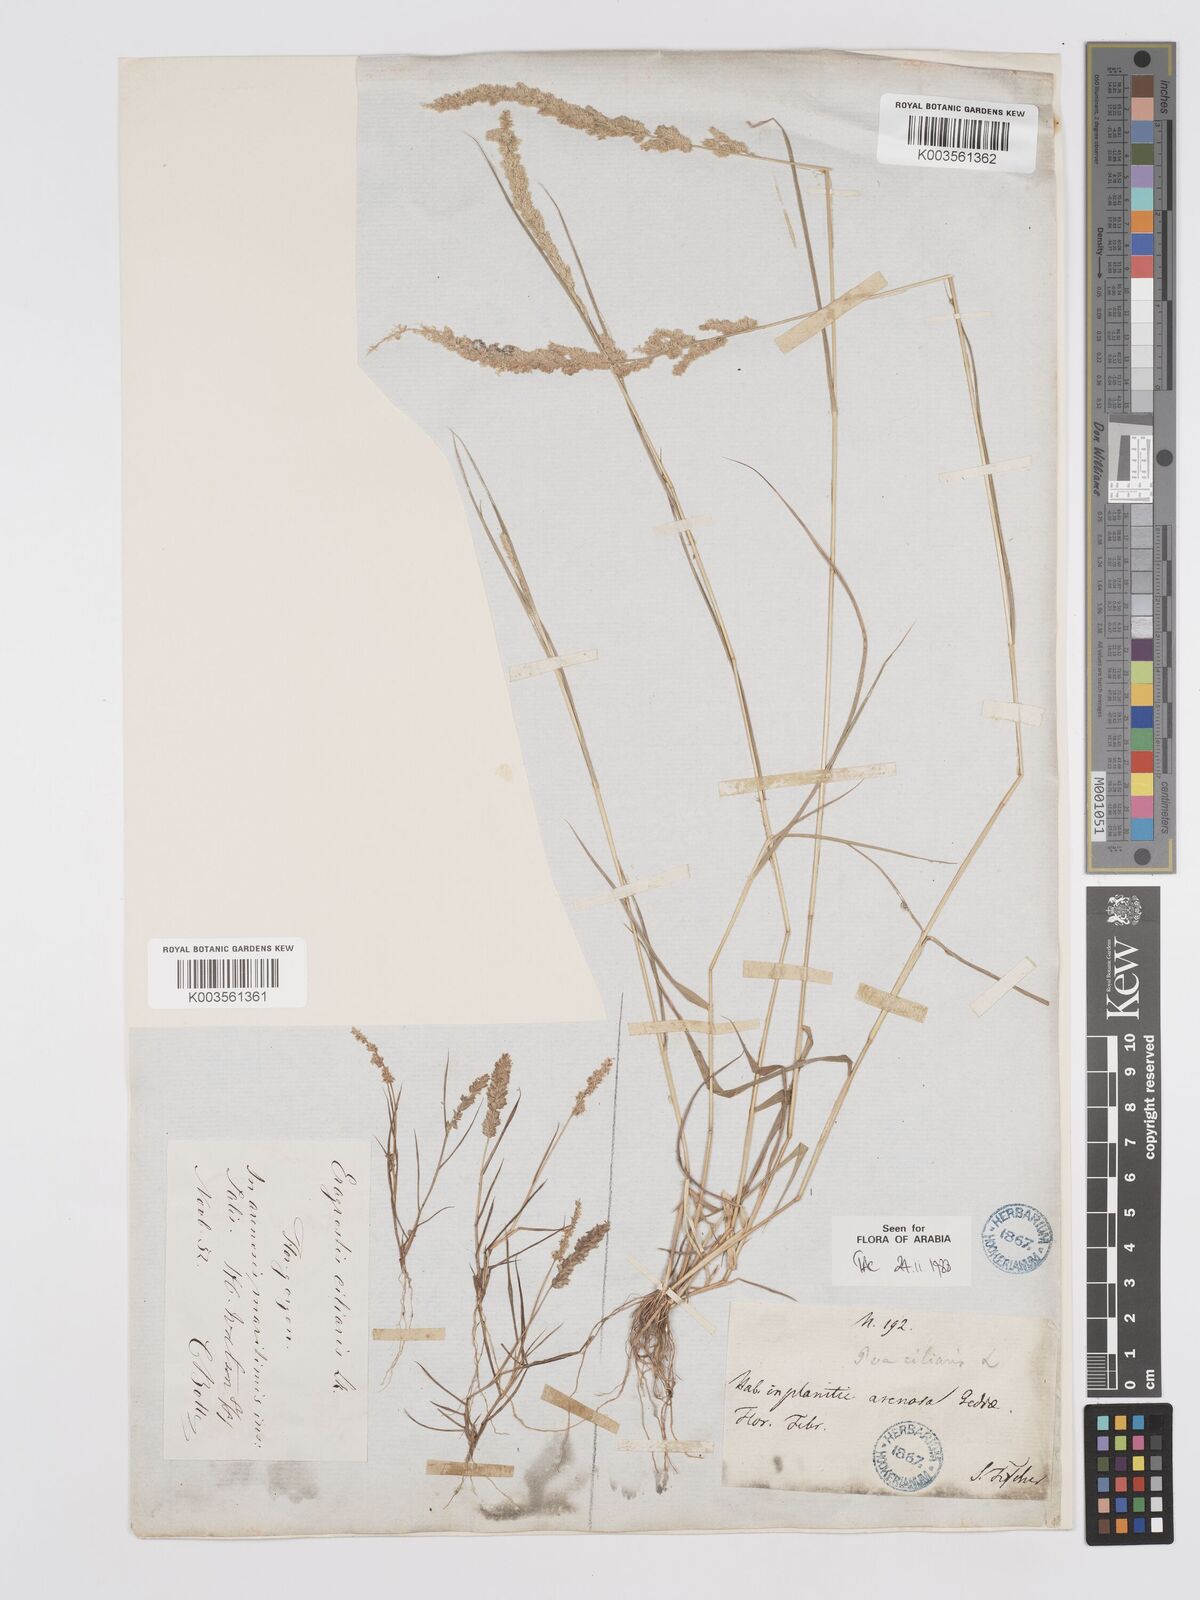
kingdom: Plantae
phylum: Tracheophyta
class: Liliopsida
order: Poales
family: Poaceae
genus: Eragrostis
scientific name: Eragrostis ciliaris
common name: Gophertail lovegrass
